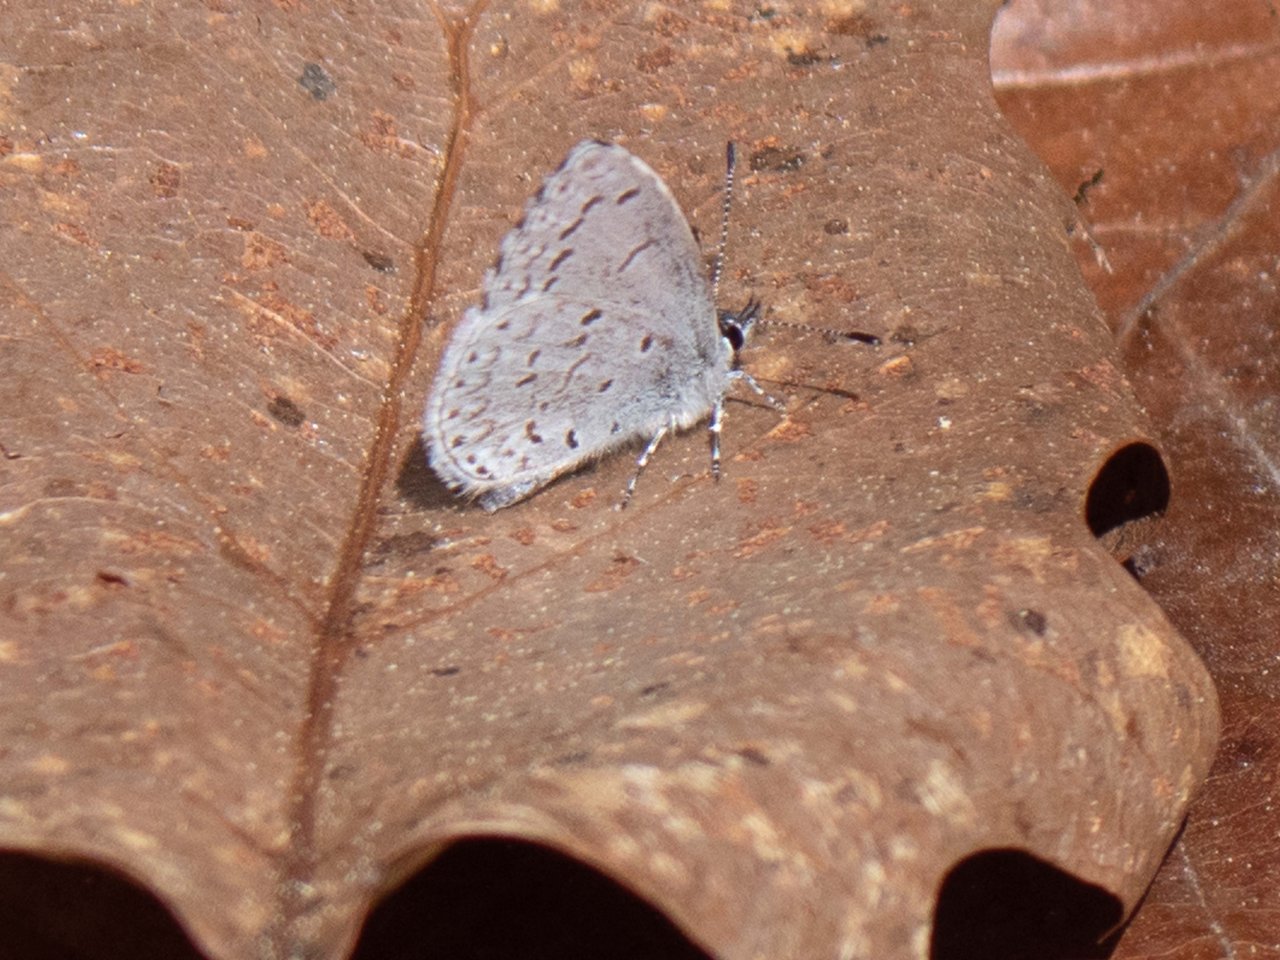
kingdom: Animalia
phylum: Arthropoda
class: Insecta
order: Lepidoptera
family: Lycaenidae
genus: Celastrina
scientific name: Celastrina lucia
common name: Northern Spring Azure
